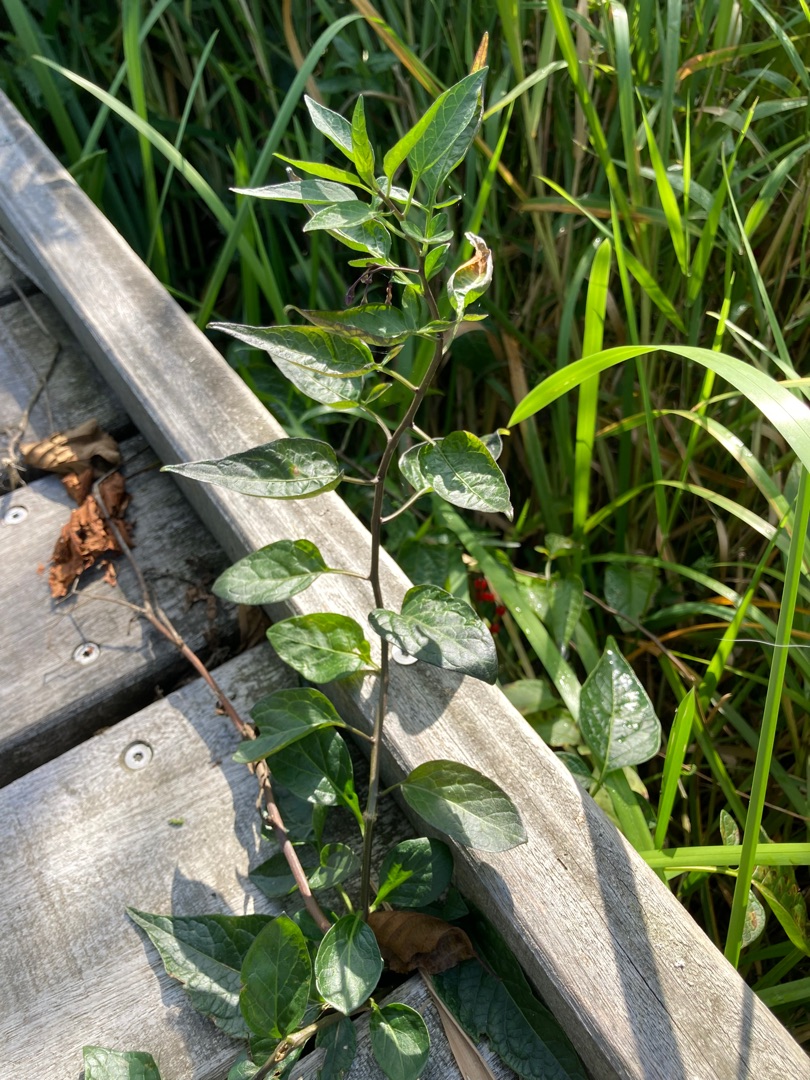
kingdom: Plantae
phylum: Tracheophyta
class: Magnoliopsida
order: Solanales
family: Solanaceae
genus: Solanum
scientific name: Solanum dulcamara
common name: Bittersød natskygge
